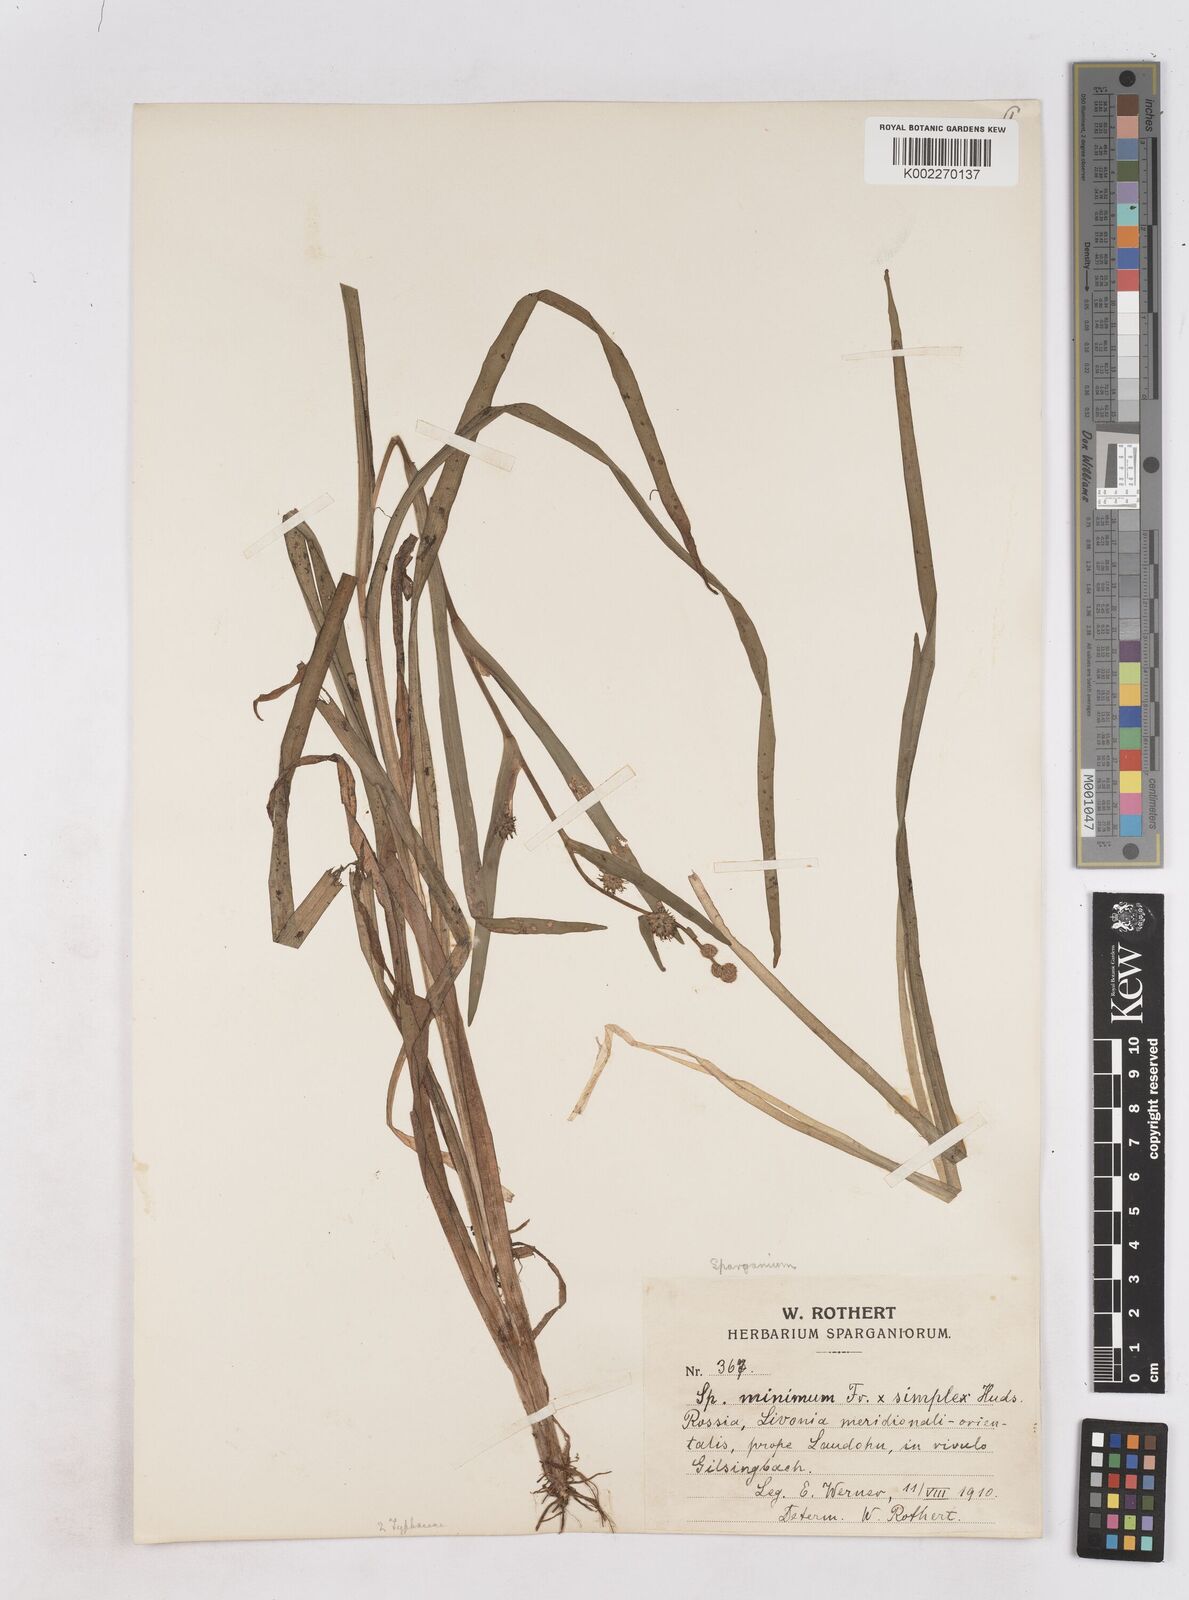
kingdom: Plantae
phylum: Tracheophyta
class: Liliopsida
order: Poales
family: Typhaceae
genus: Sparganium
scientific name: Sparganium natans
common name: Least bur-reed
